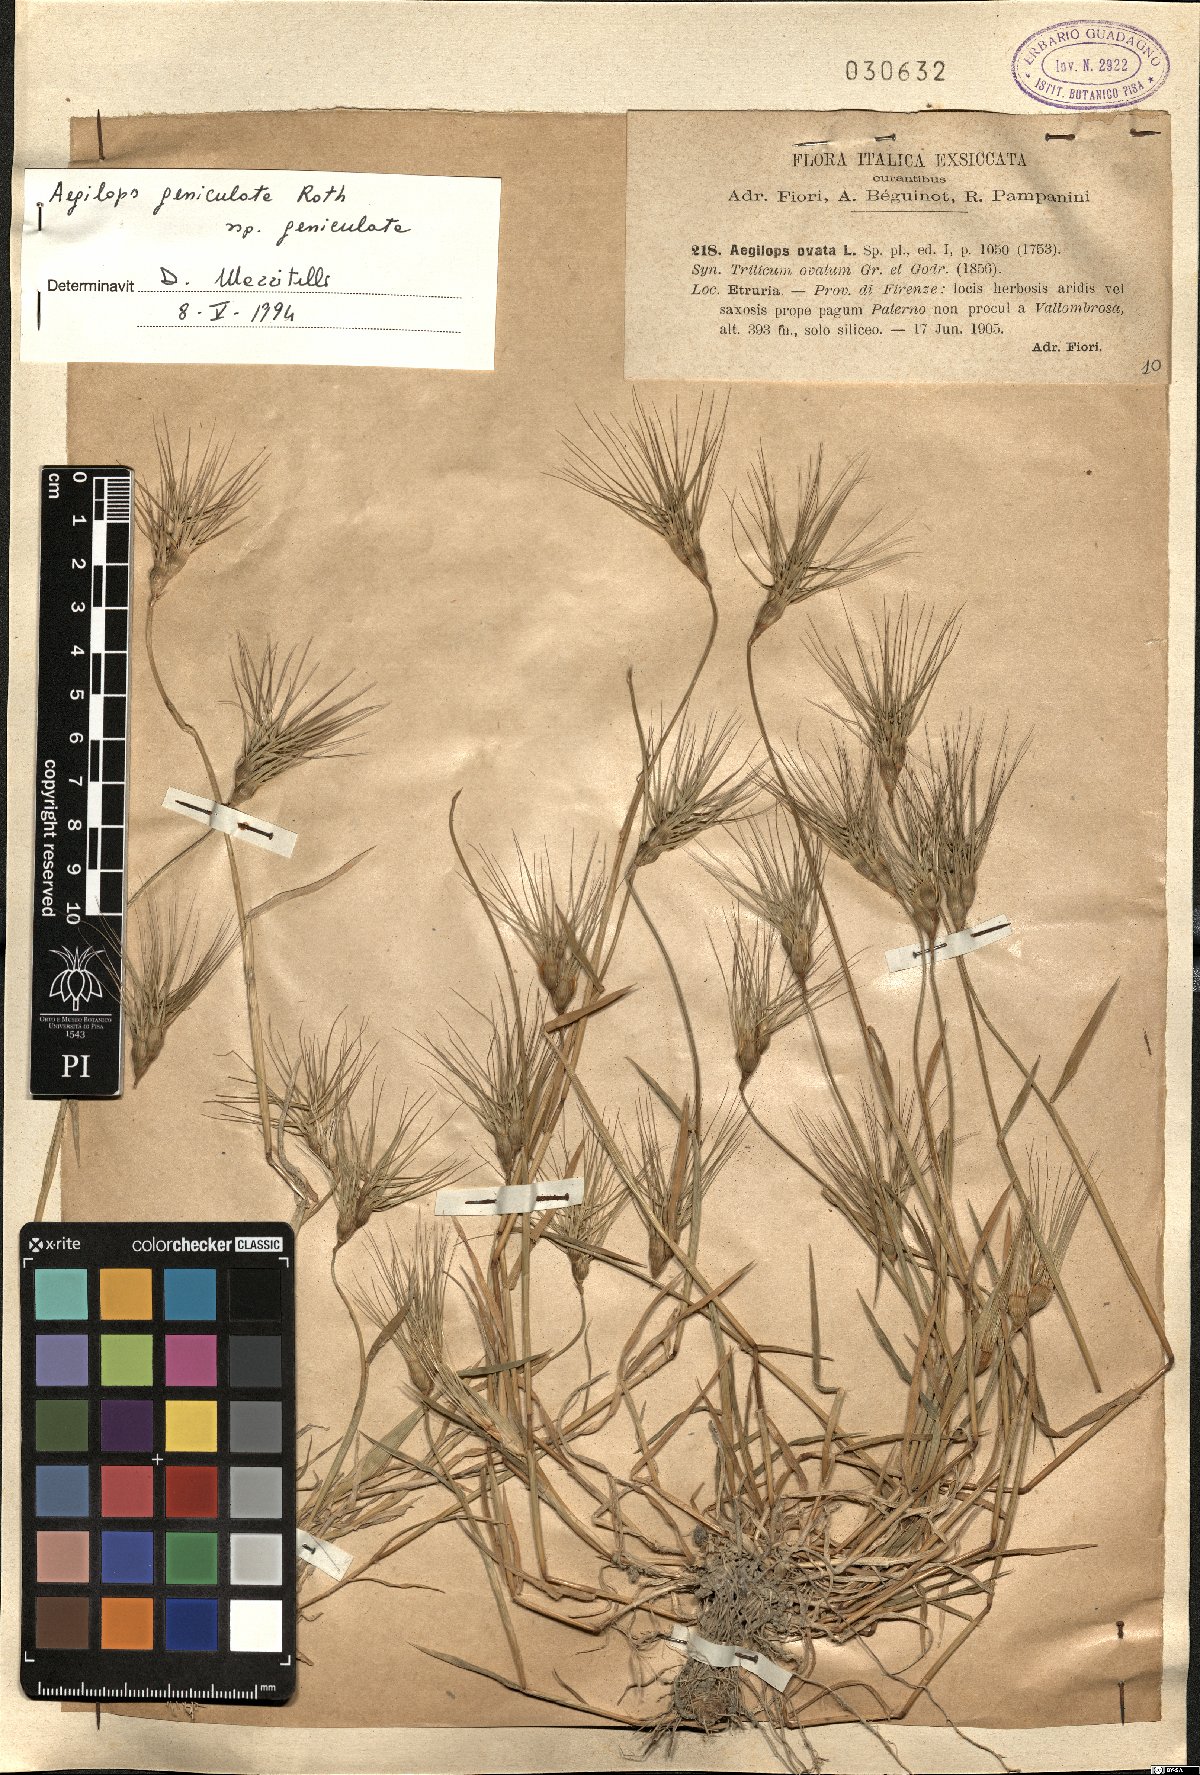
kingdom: Plantae
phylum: Tracheophyta
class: Liliopsida
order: Poales
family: Poaceae
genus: Aegilops
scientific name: Aegilops geniculata
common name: Ovate goat grass
